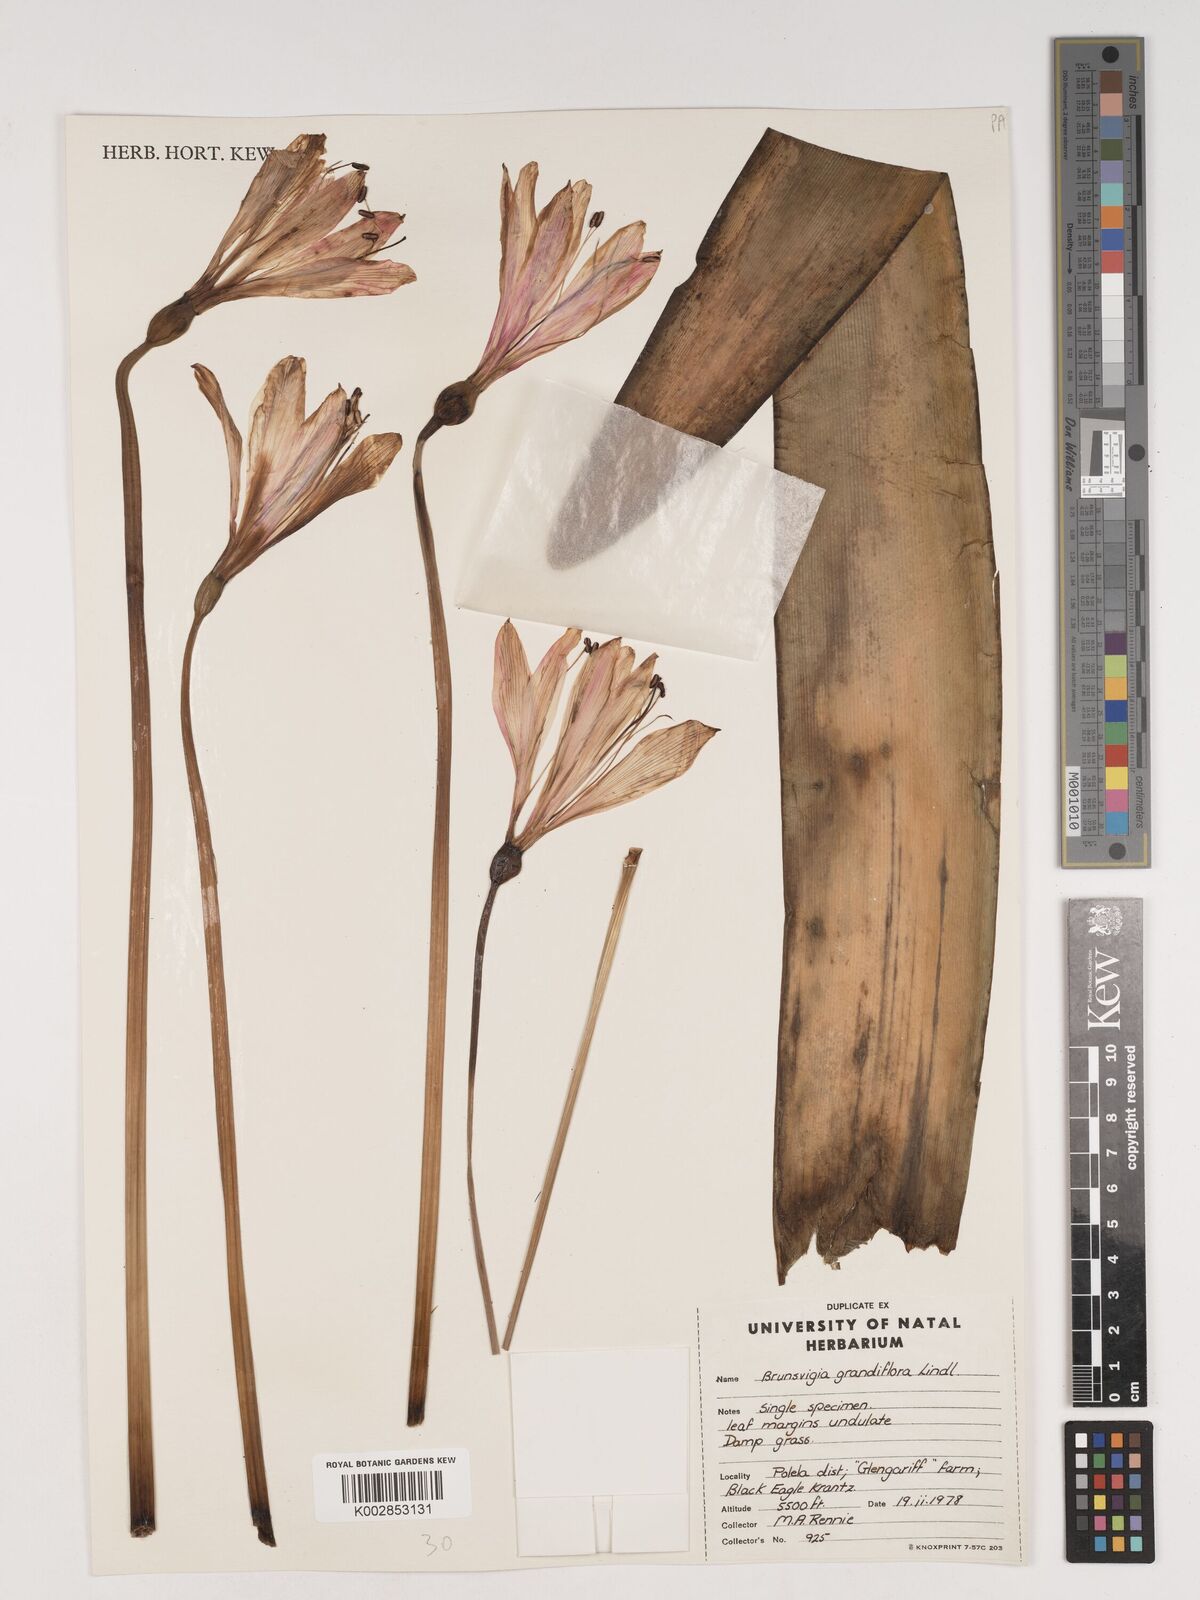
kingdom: Plantae
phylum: Tracheophyta
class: Liliopsida
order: Asparagales
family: Amaryllidaceae
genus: Brunsvigia
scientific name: Brunsvigia grandiflora
